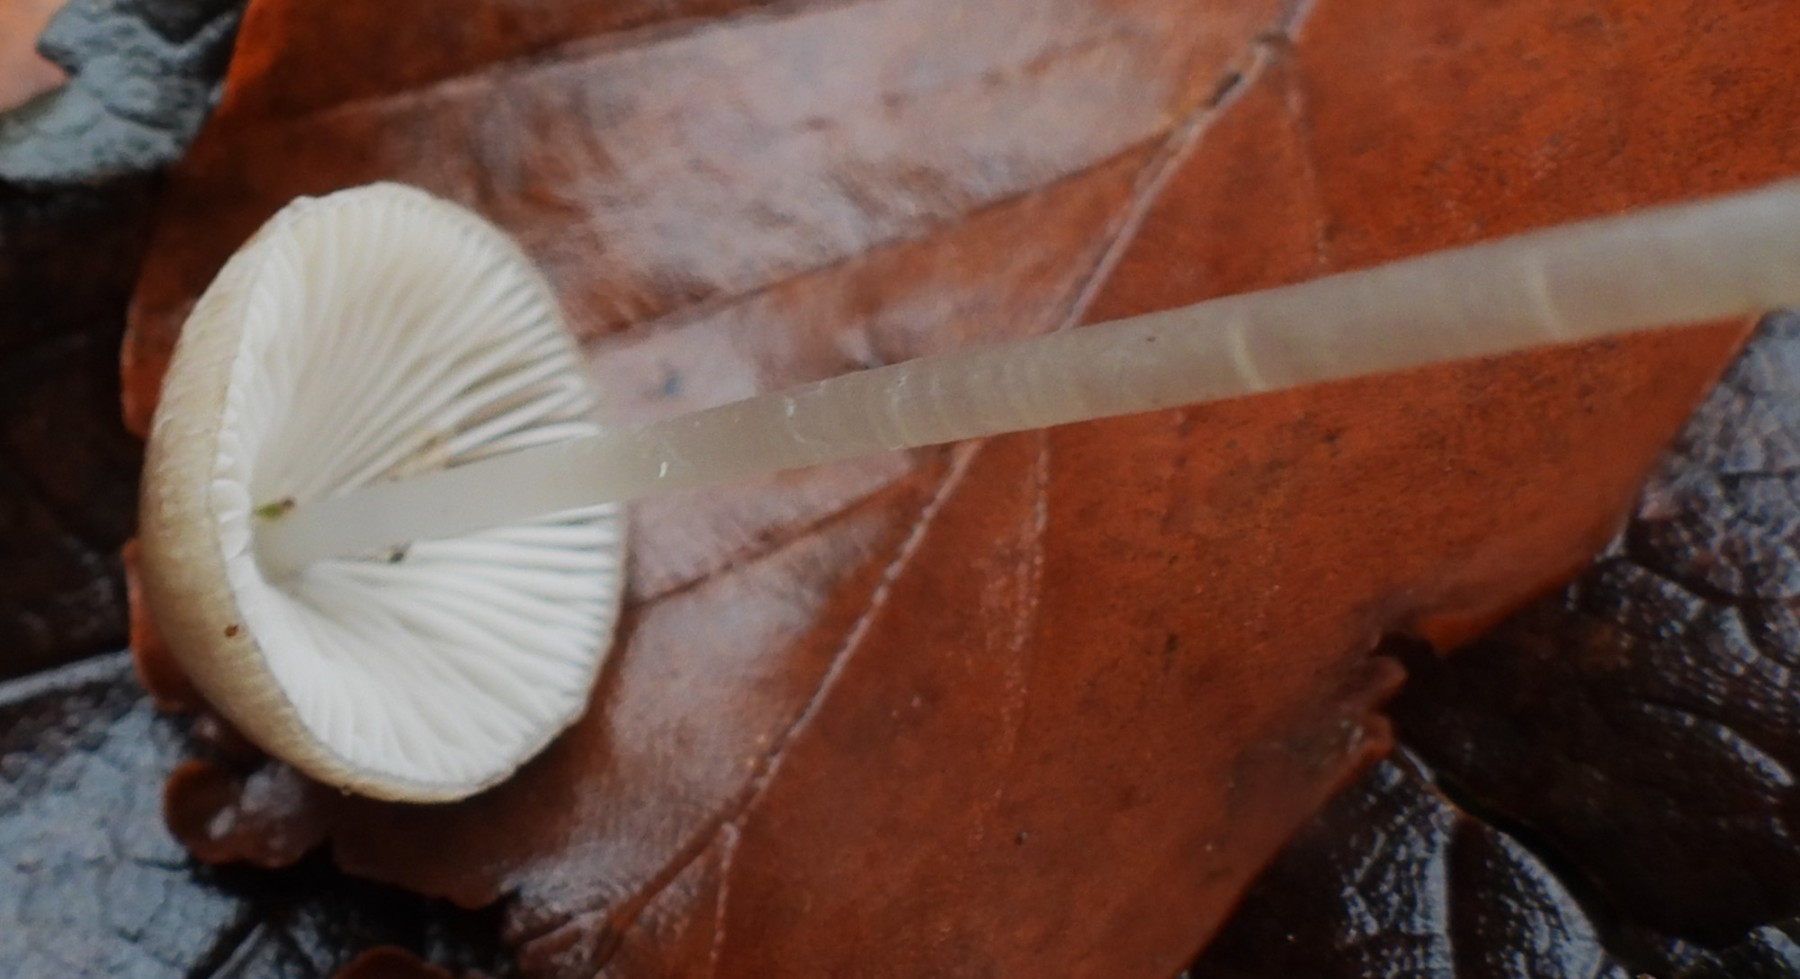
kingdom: Fungi
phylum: Basidiomycota
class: Agaricomycetes
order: Agaricales
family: Mycenaceae
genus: Mycena
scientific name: Mycena vitilis
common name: blankstokket huesvamp
